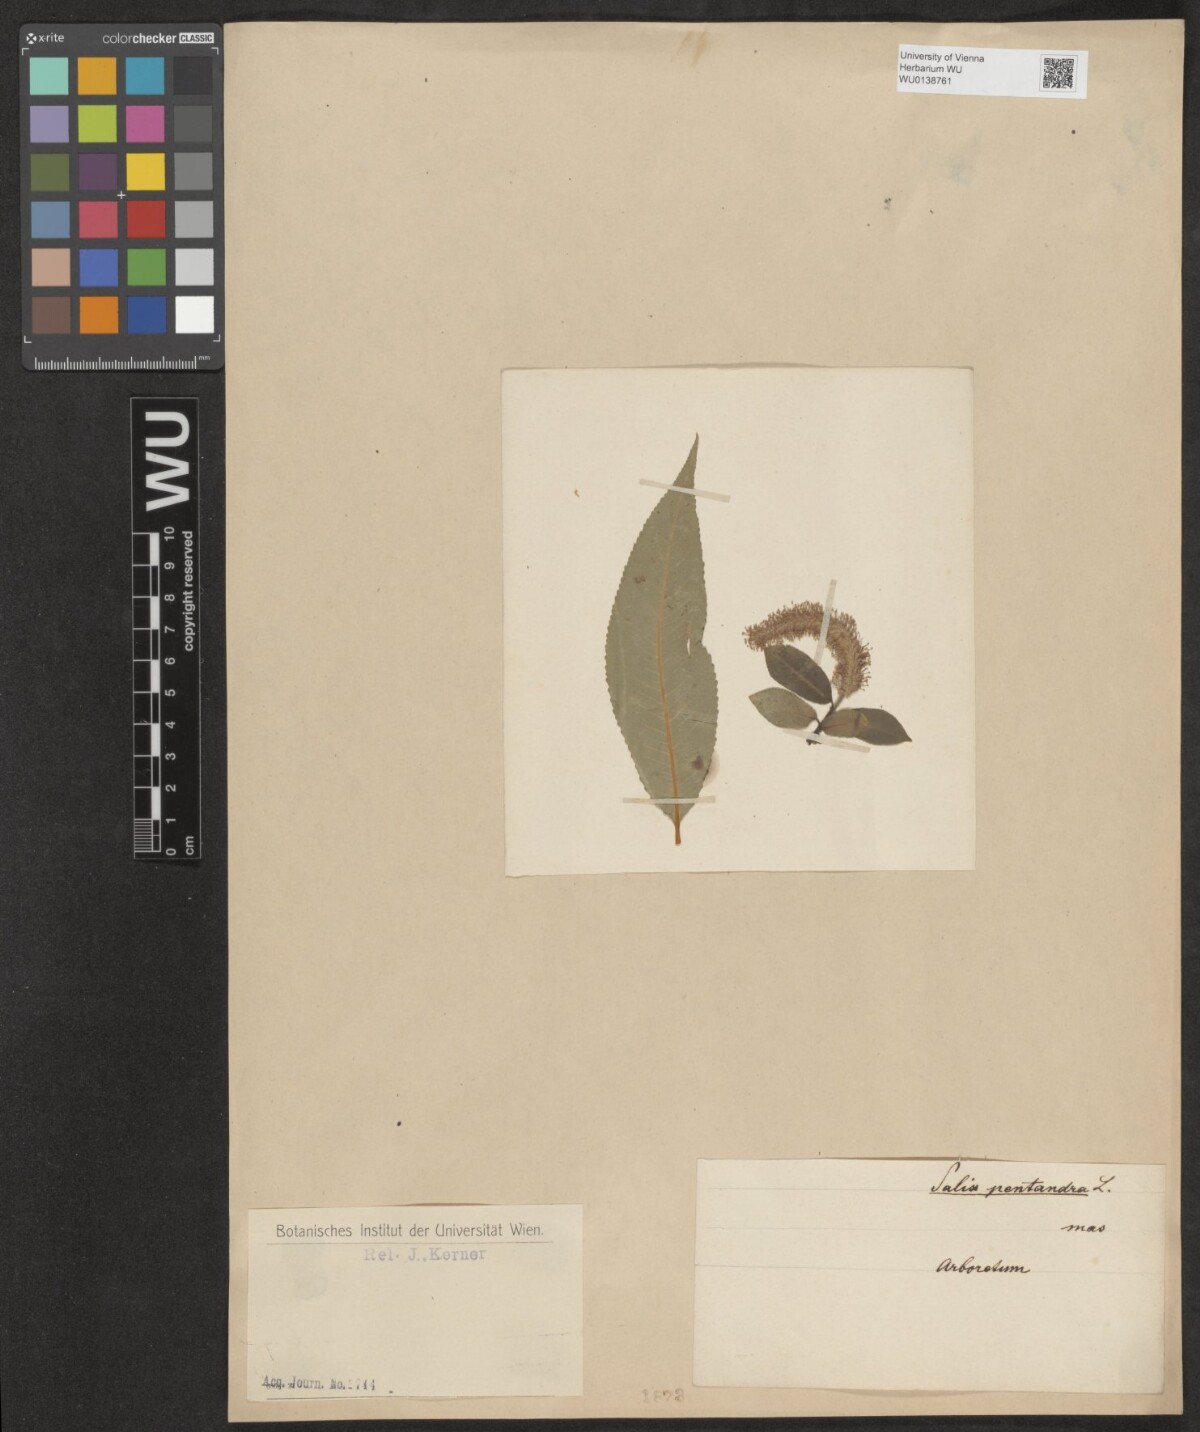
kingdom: Plantae
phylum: Tracheophyta
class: Magnoliopsida
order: Malpighiales
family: Salicaceae
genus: Salix
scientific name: Salix pentandra
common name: Bay willow
